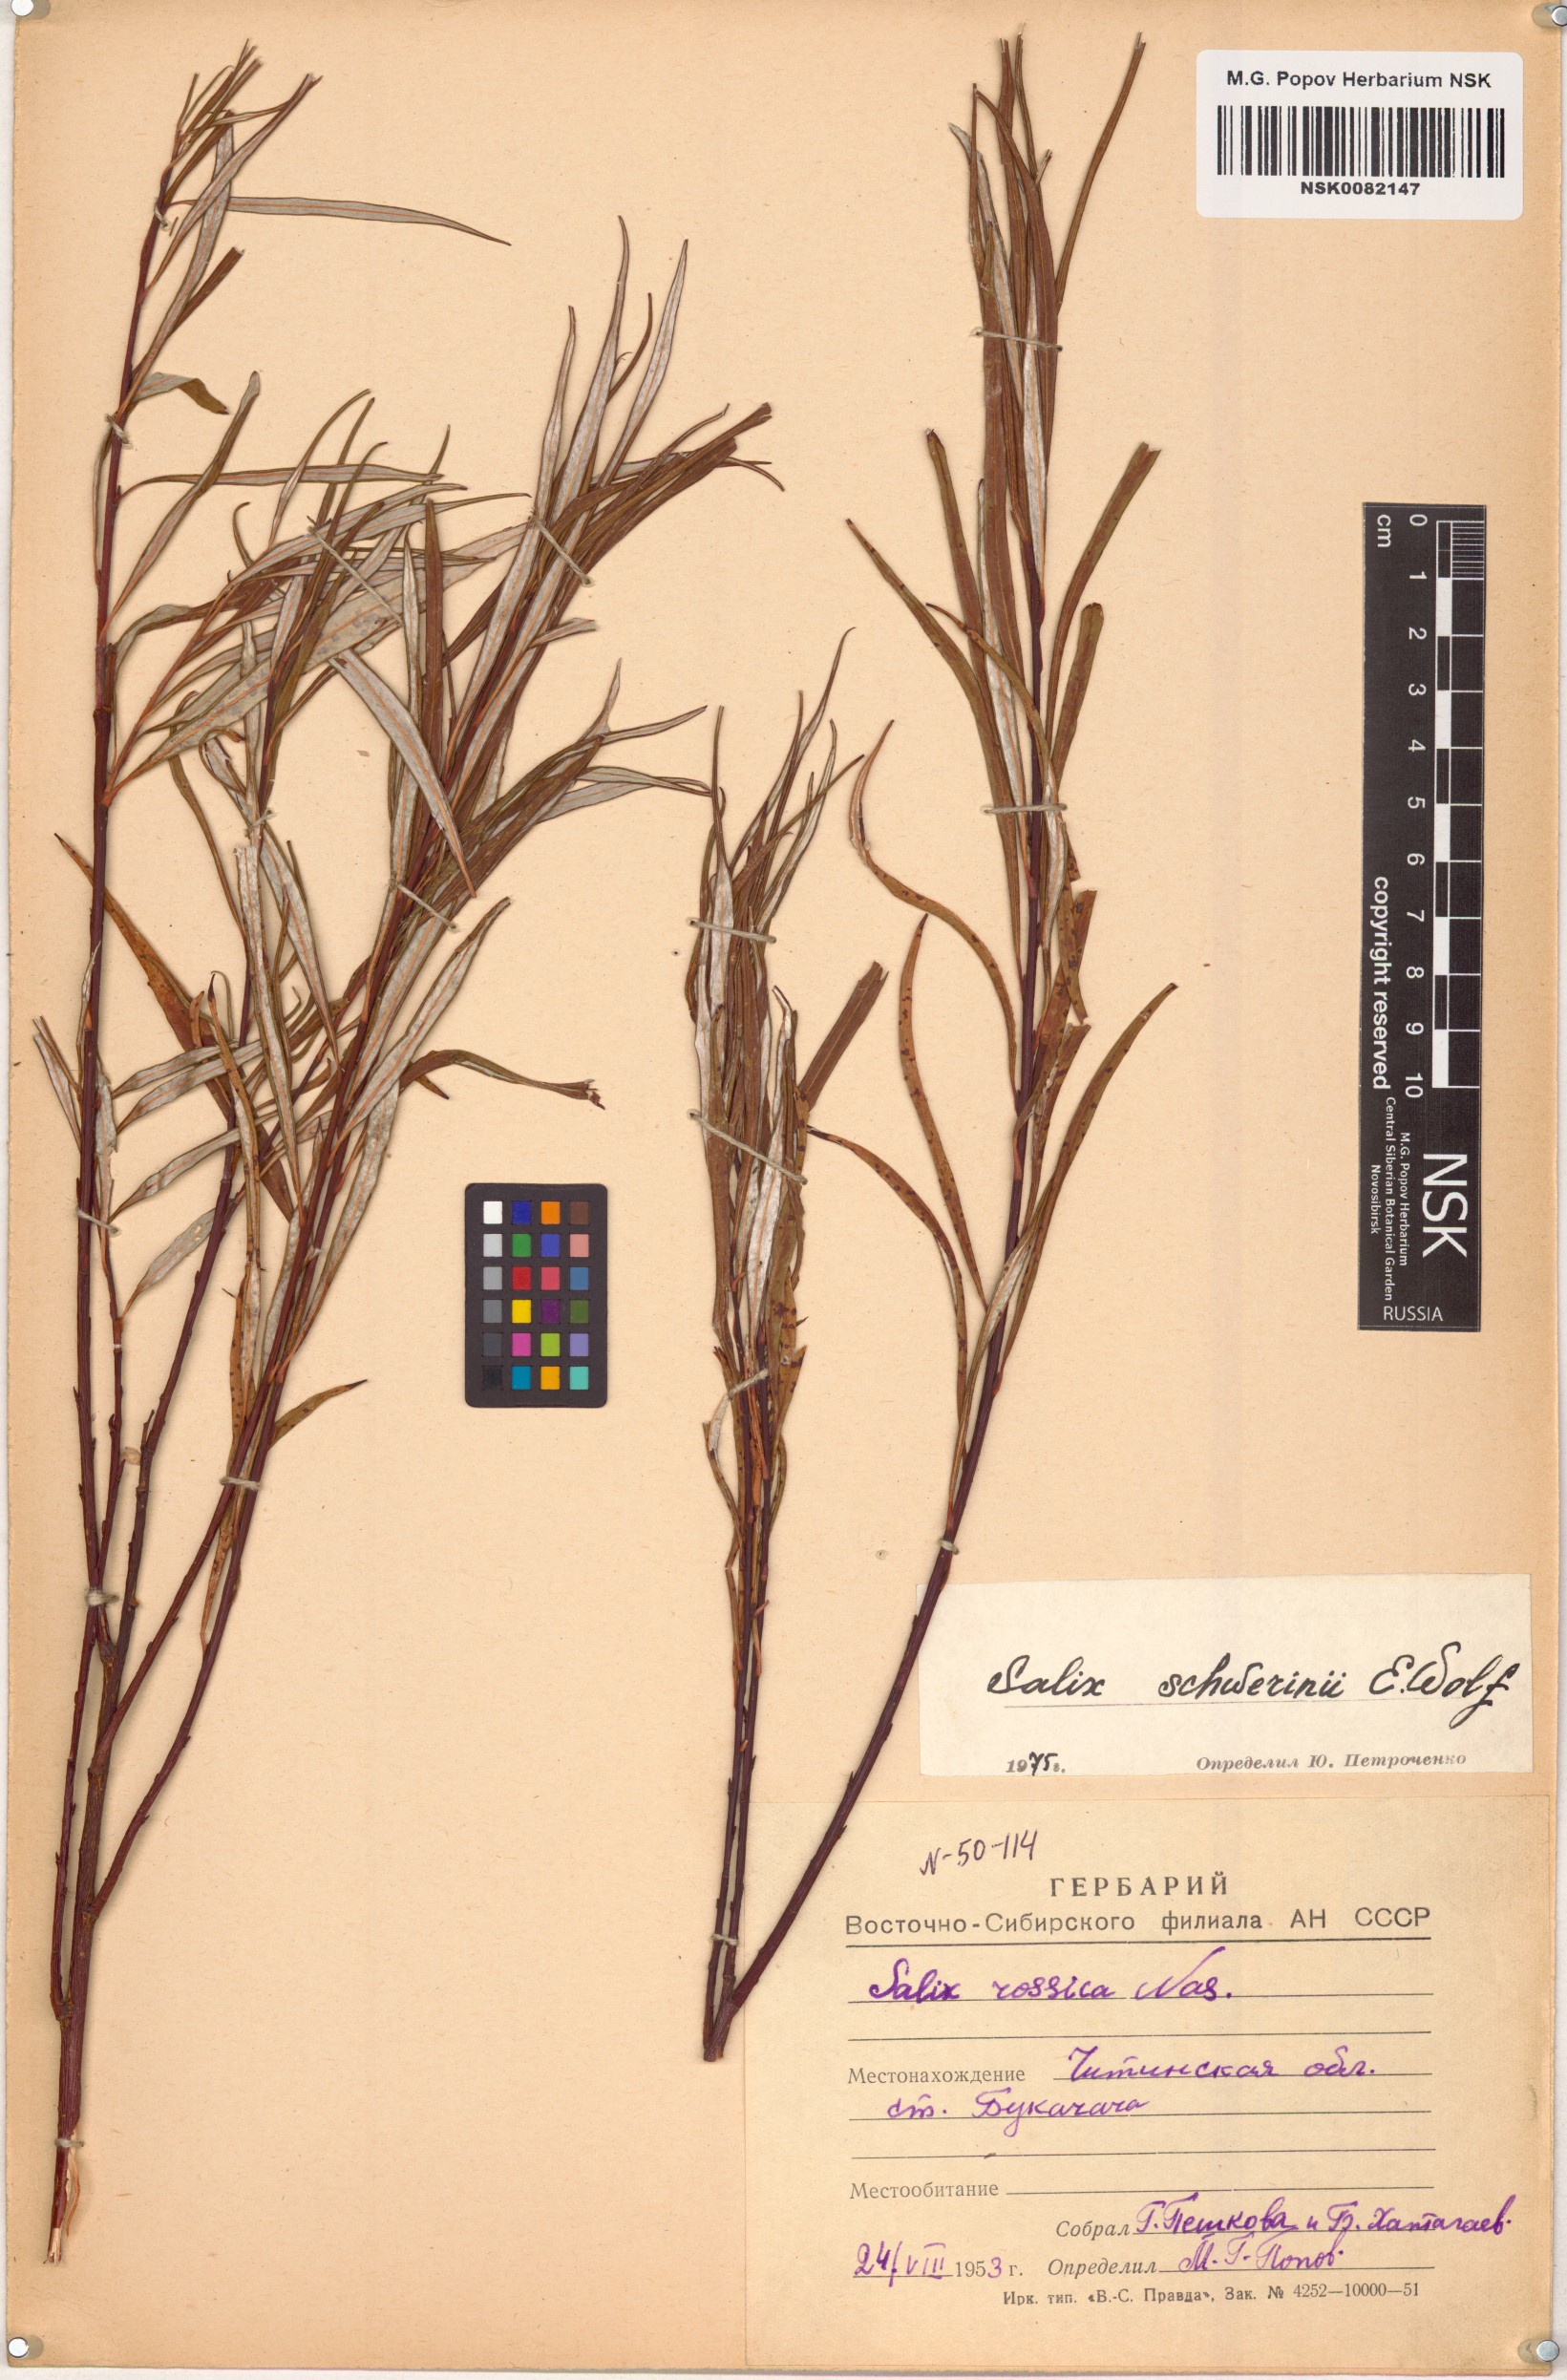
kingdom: Plantae
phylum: Tracheophyta
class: Magnoliopsida
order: Malpighiales
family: Salicaceae
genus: Salix
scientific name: Salix schwerinii
